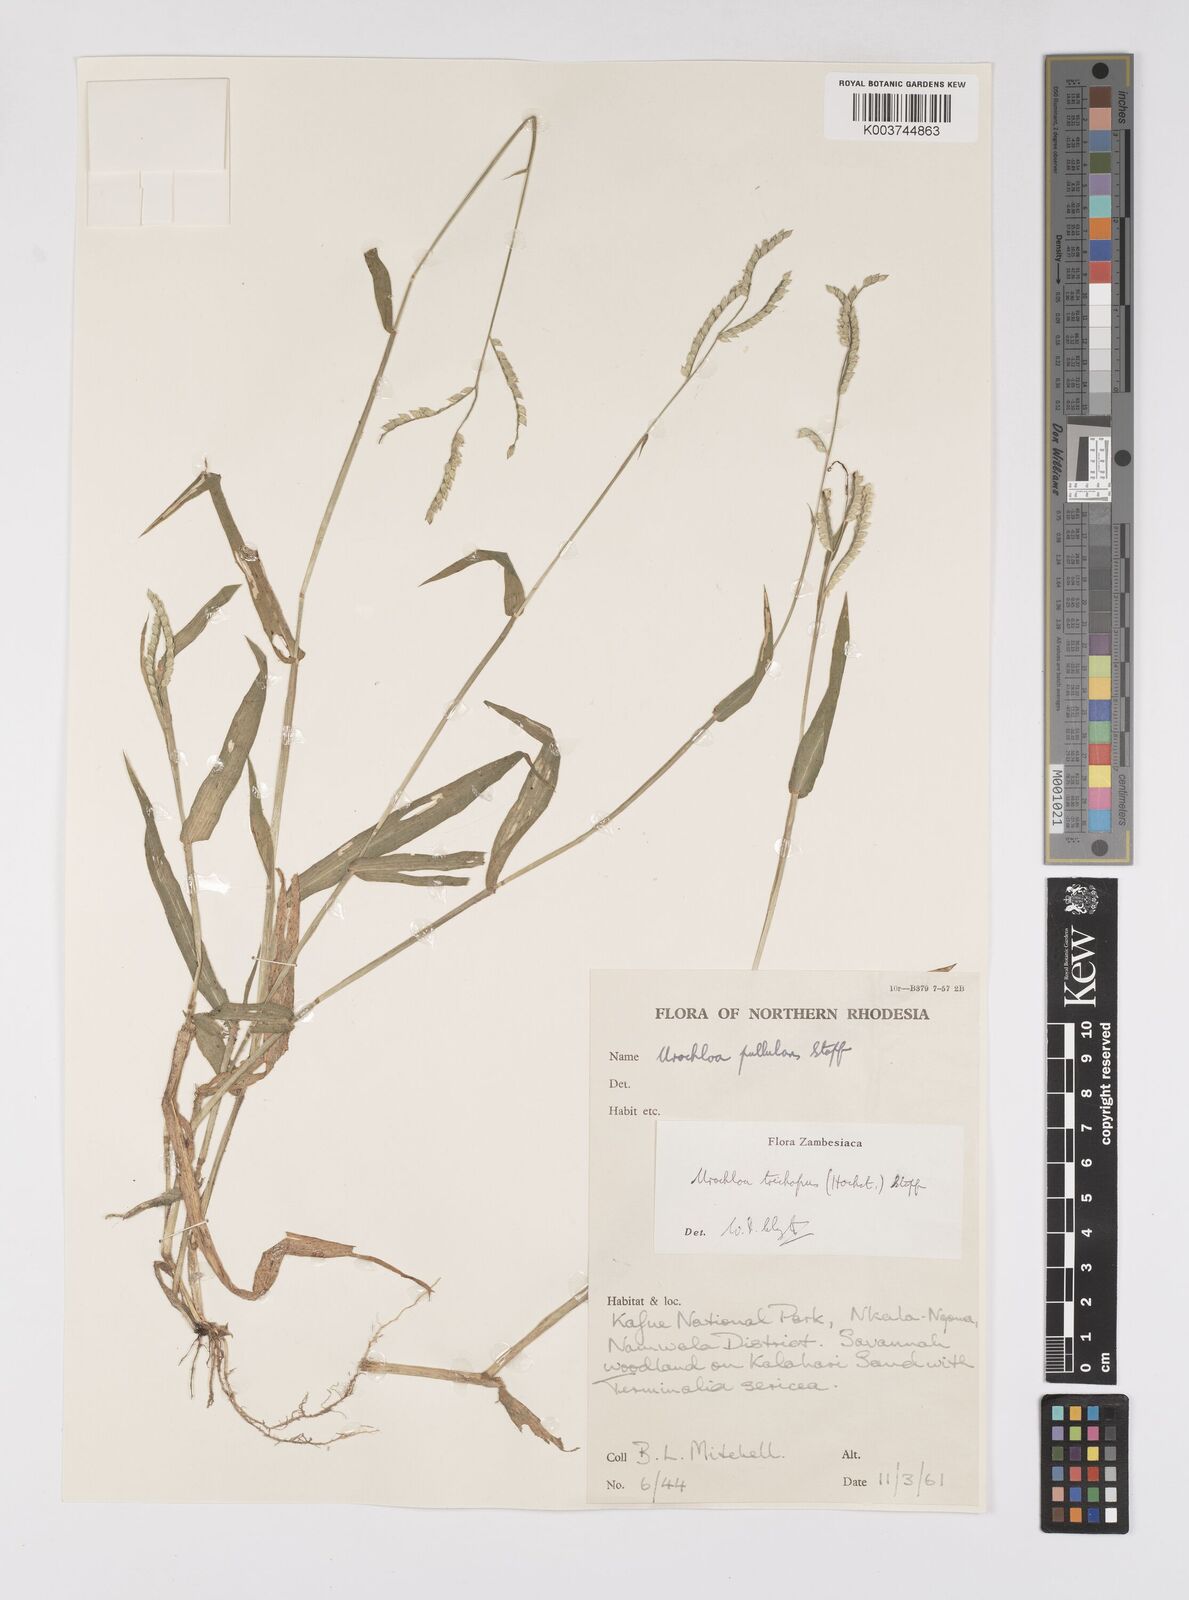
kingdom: Plantae
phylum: Tracheophyta
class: Liliopsida
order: Poales
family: Poaceae
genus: Urochloa
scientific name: Urochloa trichopus
